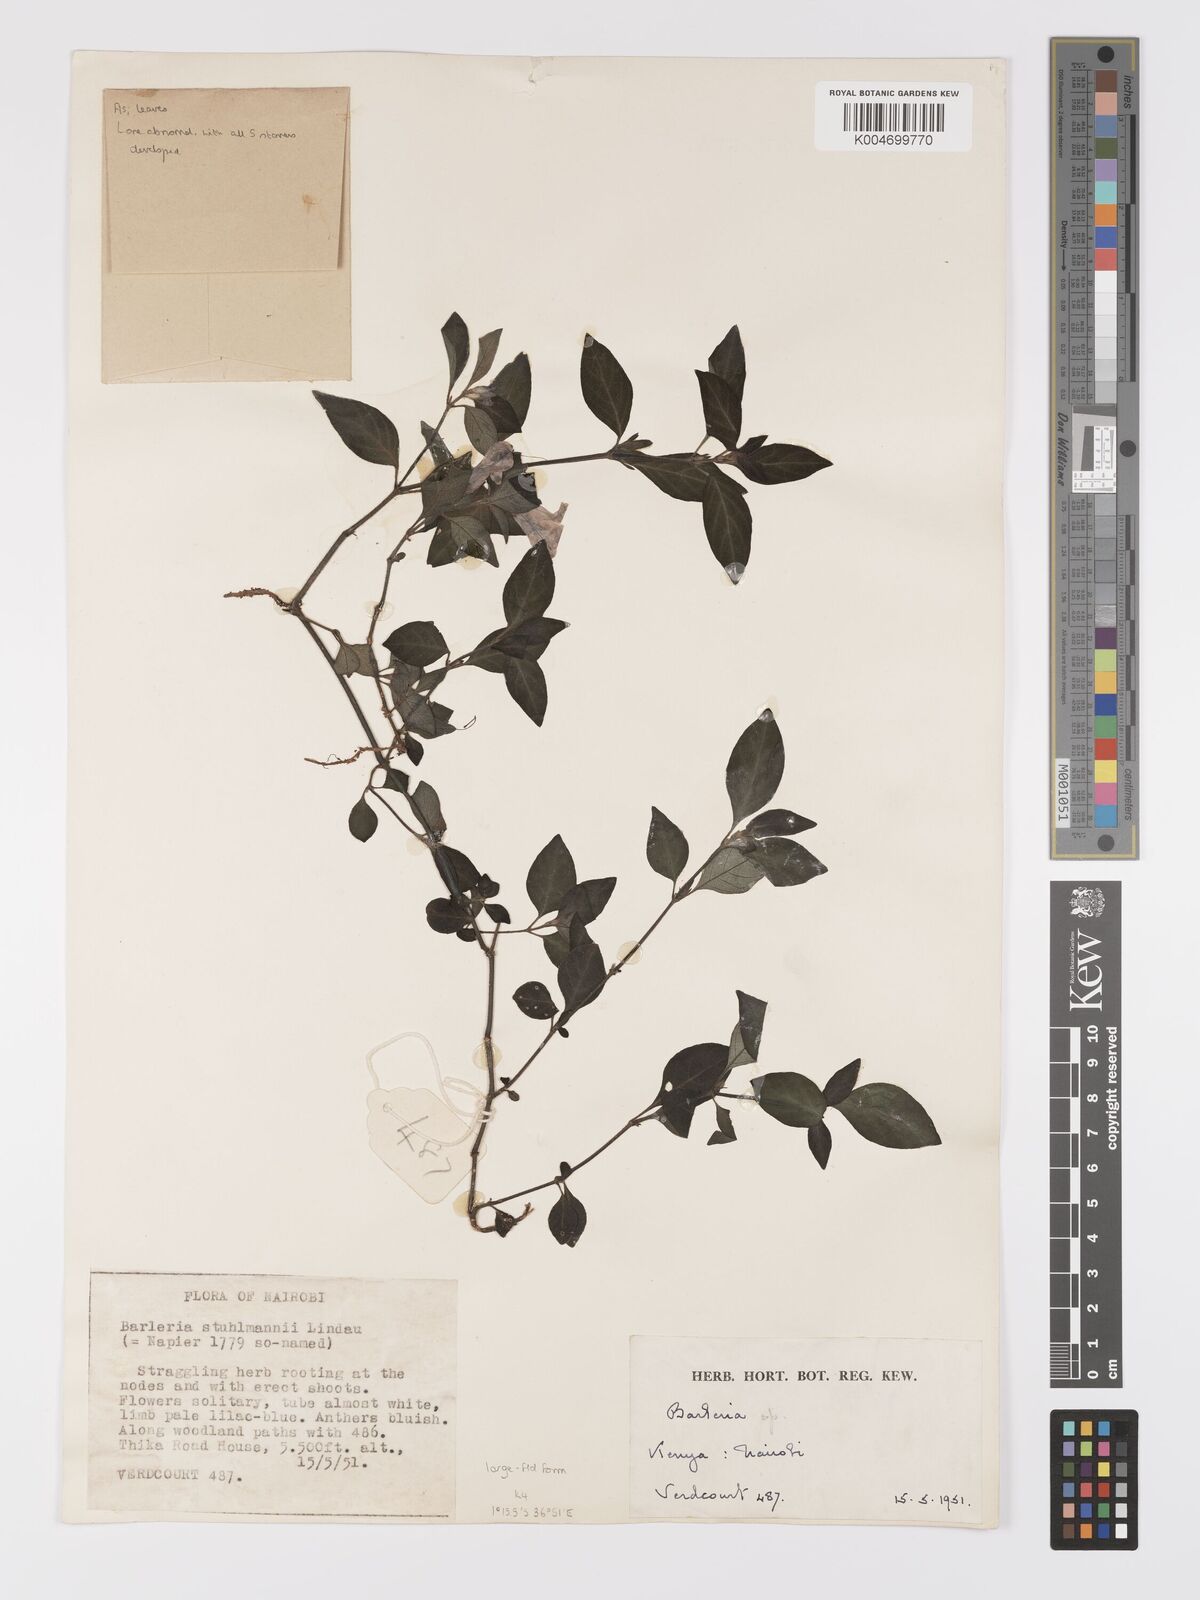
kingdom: Plantae
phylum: Tracheophyta
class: Magnoliopsida
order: Lamiales
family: Acanthaceae
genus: Barleria
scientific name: Barleria ventricosa
